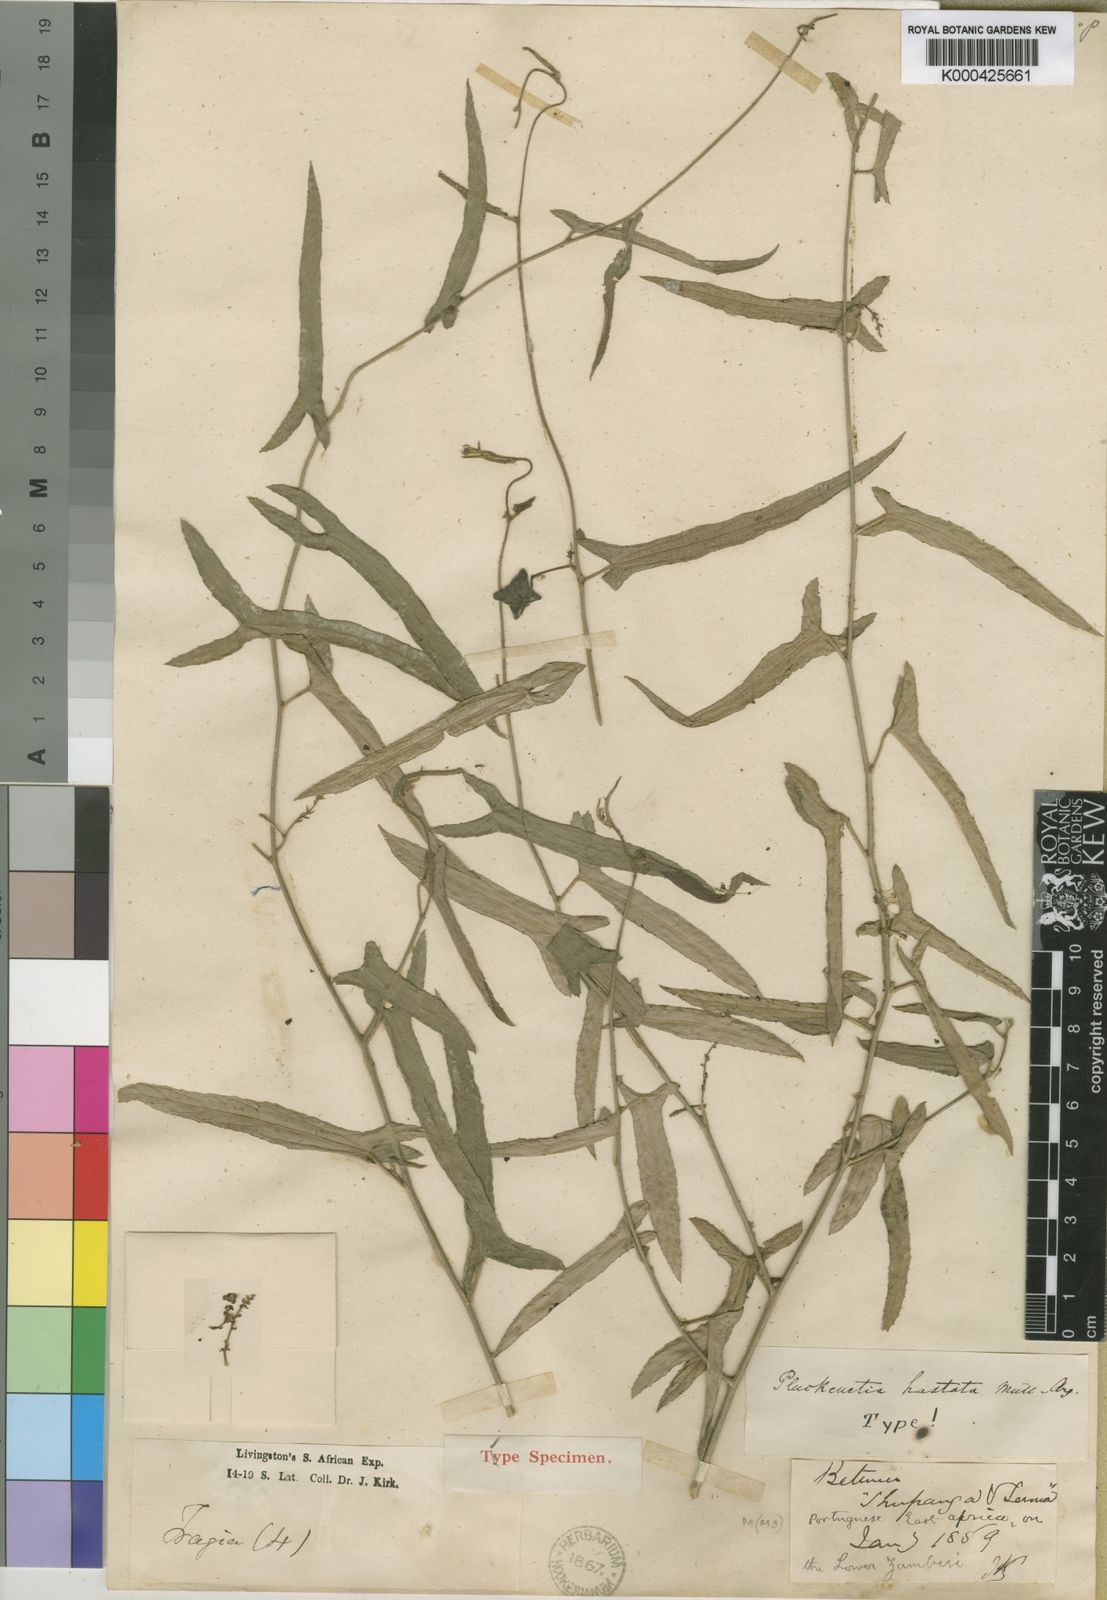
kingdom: Plantae
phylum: Tracheophyta
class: Magnoliopsida
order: Malpighiales
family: Euphorbiaceae
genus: Plukenetia
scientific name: Plukenetia africana
